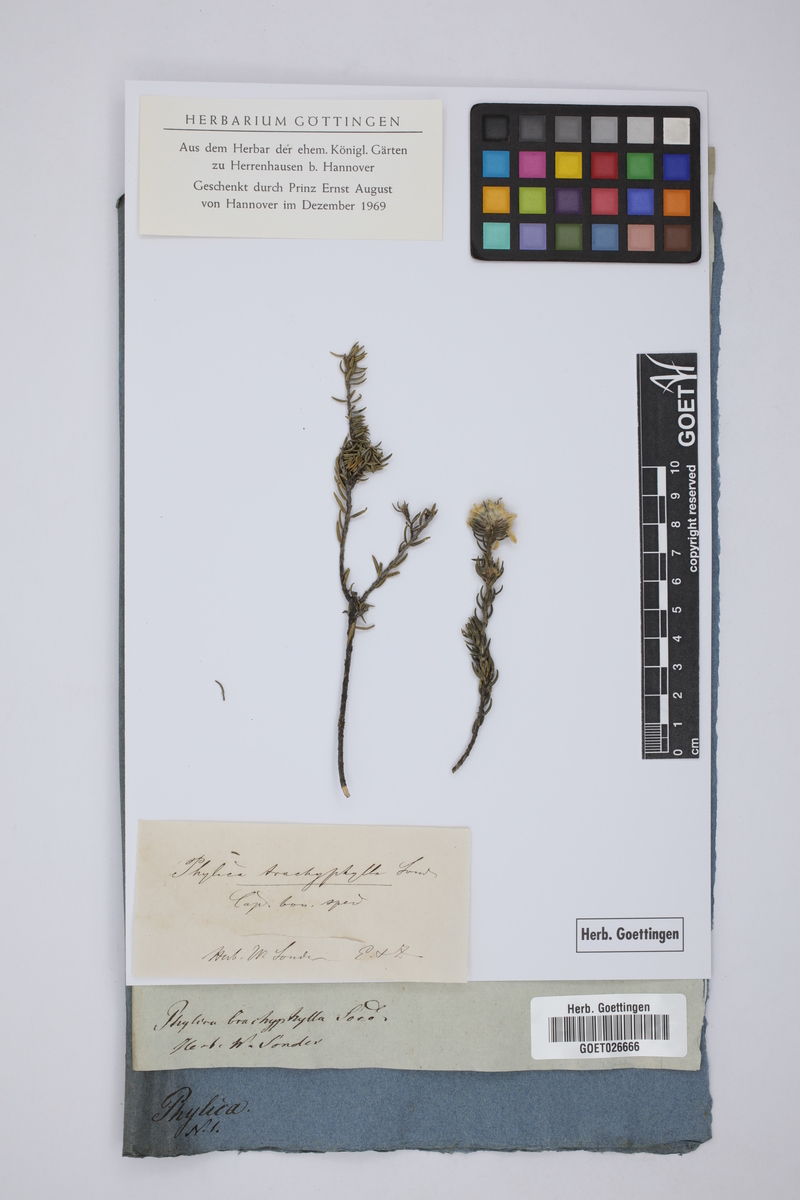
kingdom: Plantae
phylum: Tracheophyta
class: Magnoliopsida
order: Rosales
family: Rhamnaceae
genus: Phylica
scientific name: Phylica
